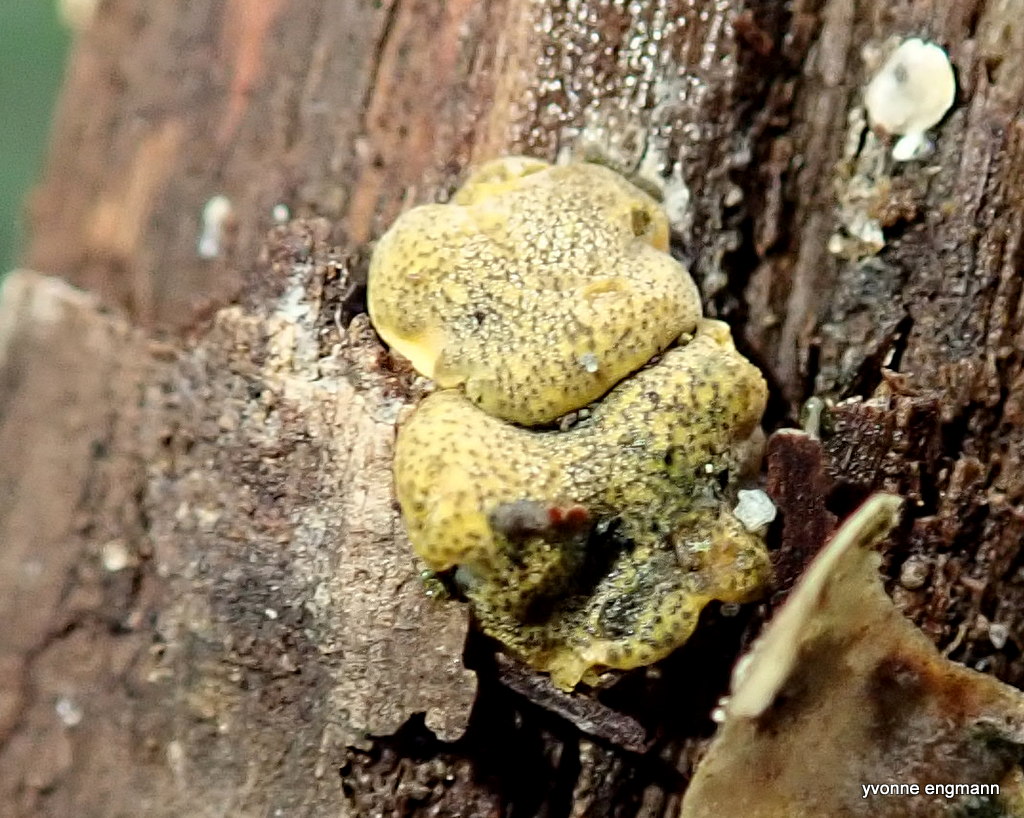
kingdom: Fungi
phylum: Ascomycota
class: Sordariomycetes
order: Hypocreales
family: Hypocreaceae
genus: Trichoderma
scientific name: Trichoderma aureoviride
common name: æggegul kødkerne
